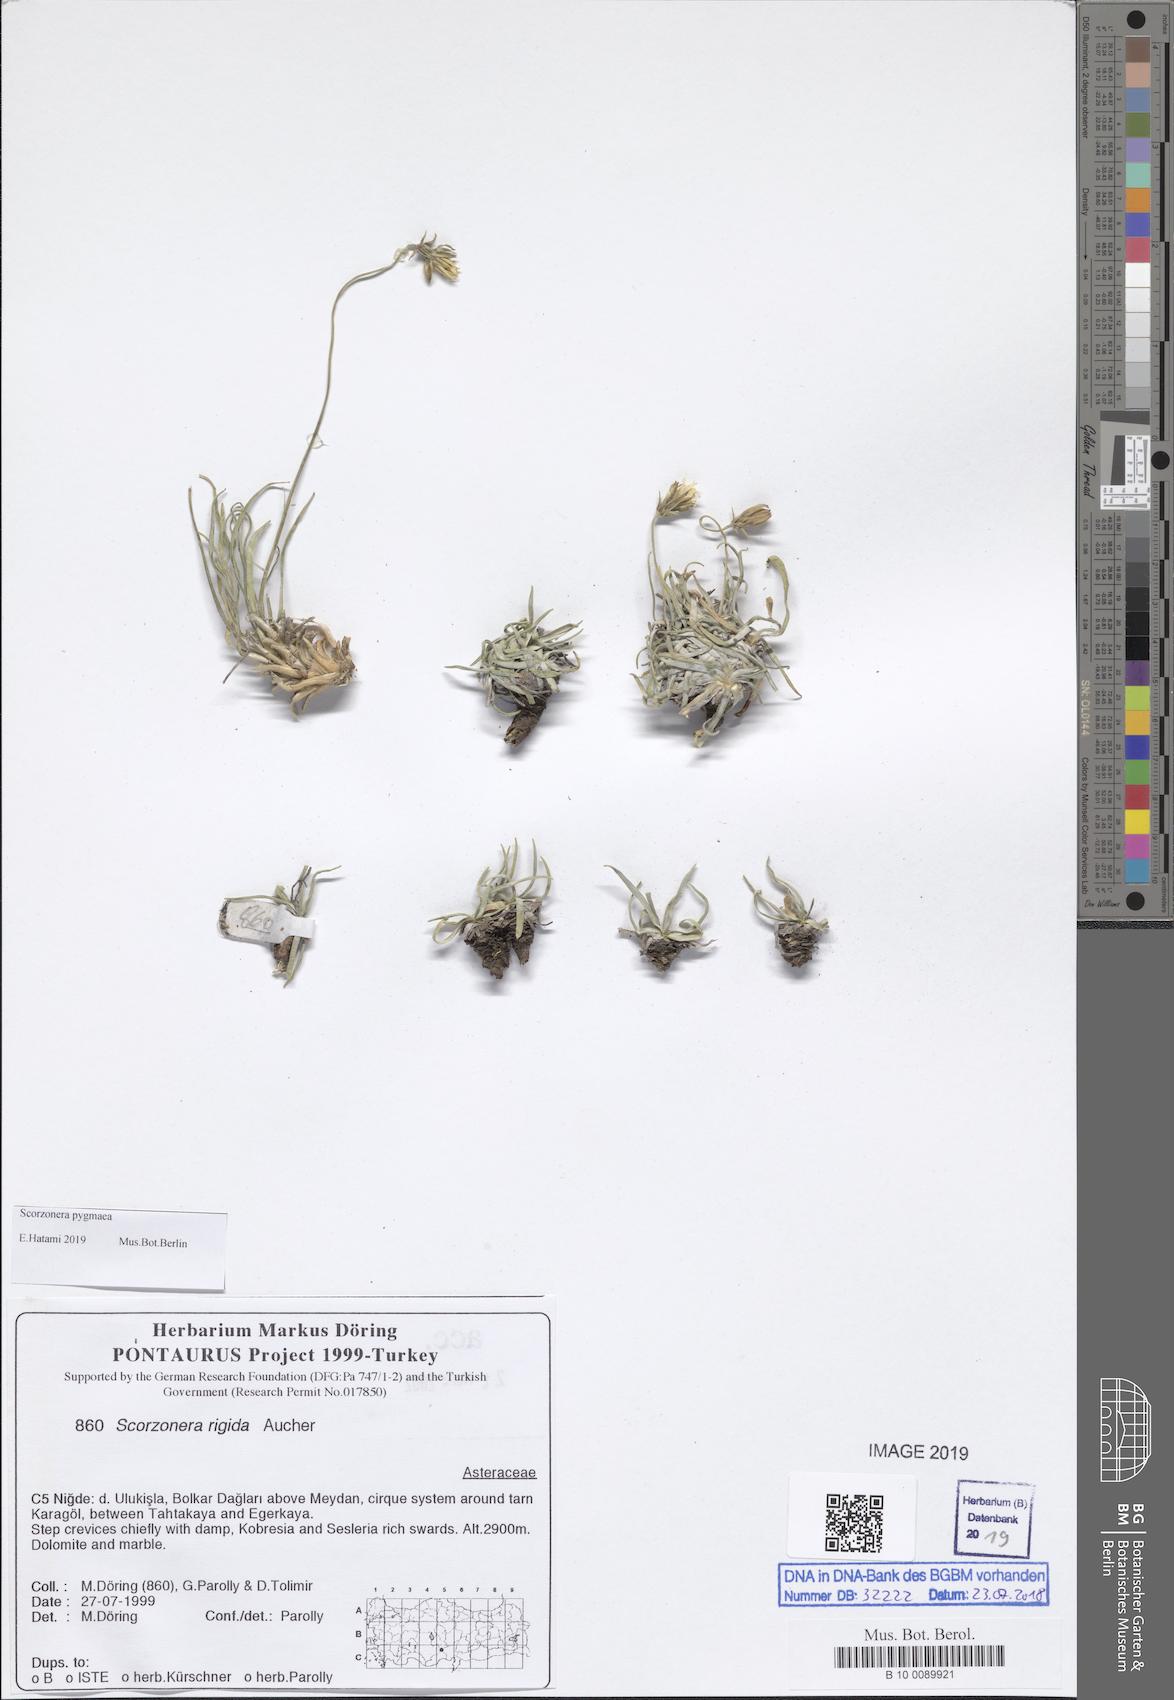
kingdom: Plantae
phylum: Tracheophyta
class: Magnoliopsida
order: Asterales
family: Asteraceae
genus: Goekyighitia
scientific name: Goekyighitia pygmaea
